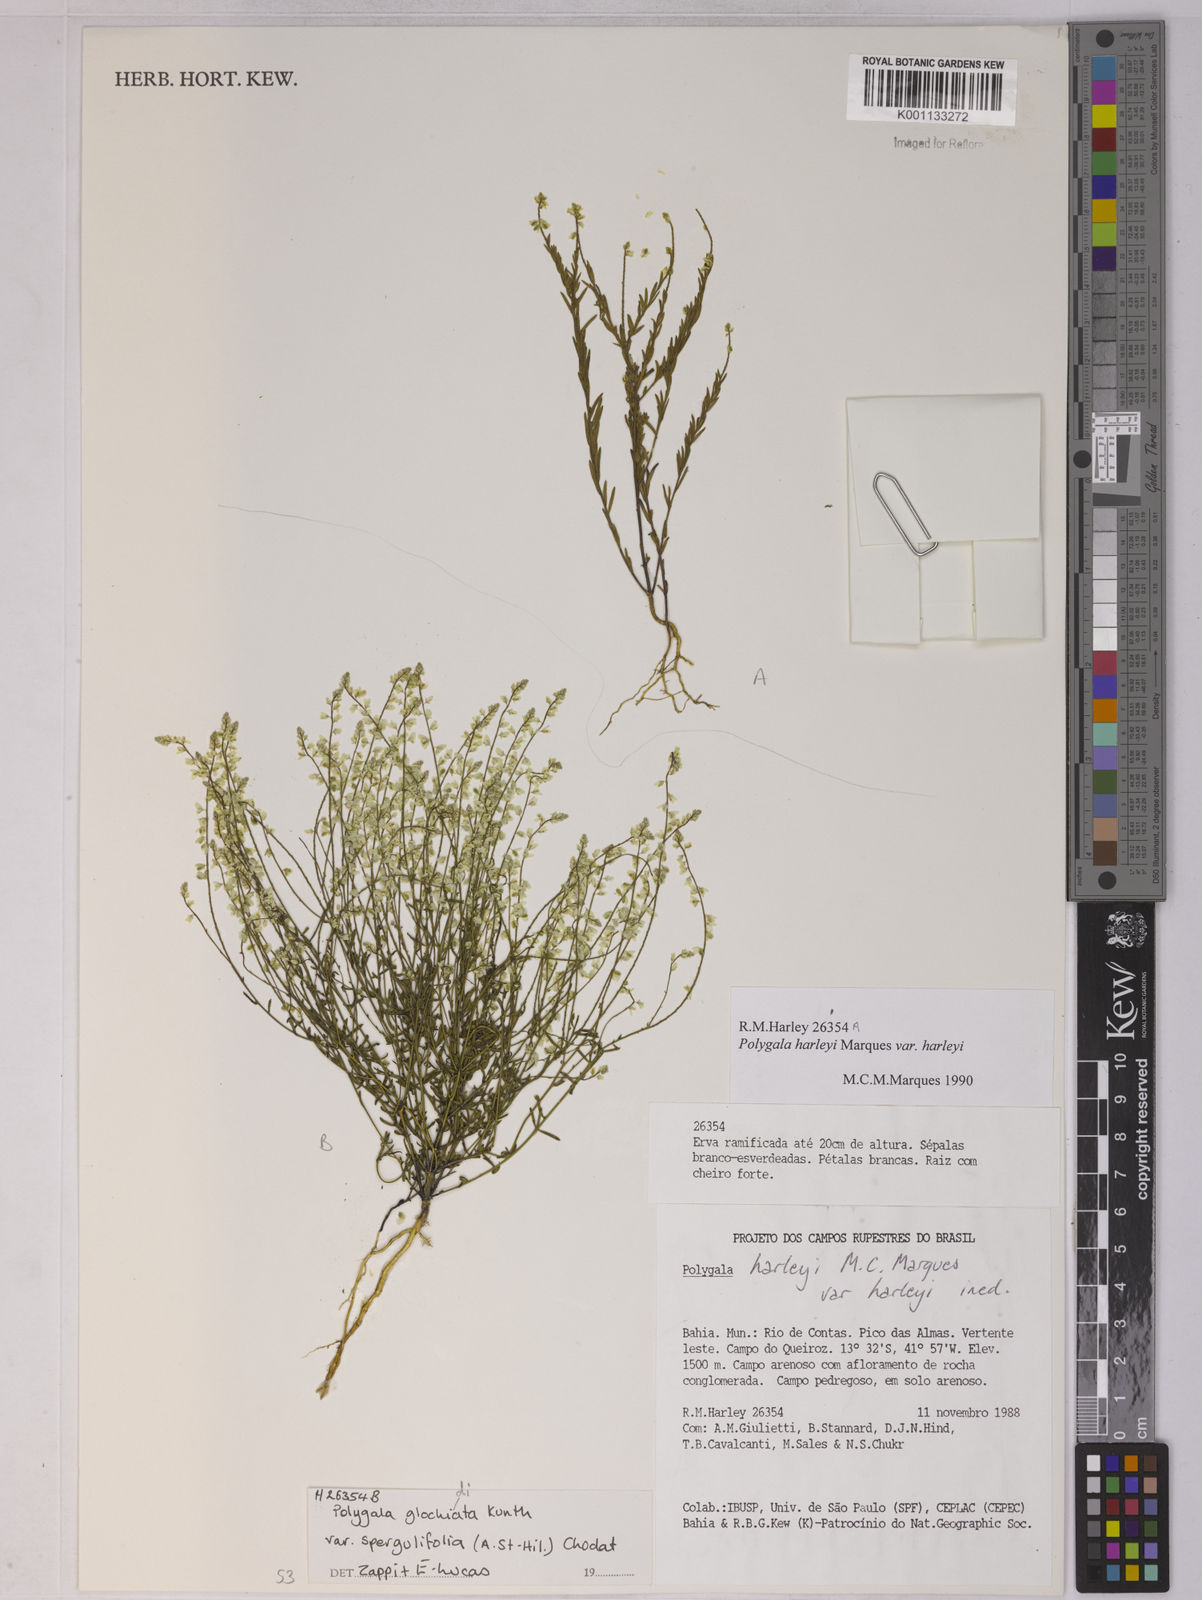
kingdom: Plantae
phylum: Tracheophyta
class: Magnoliopsida
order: Fabales
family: Polygalaceae
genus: Polygala
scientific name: Polygala glochidiata
